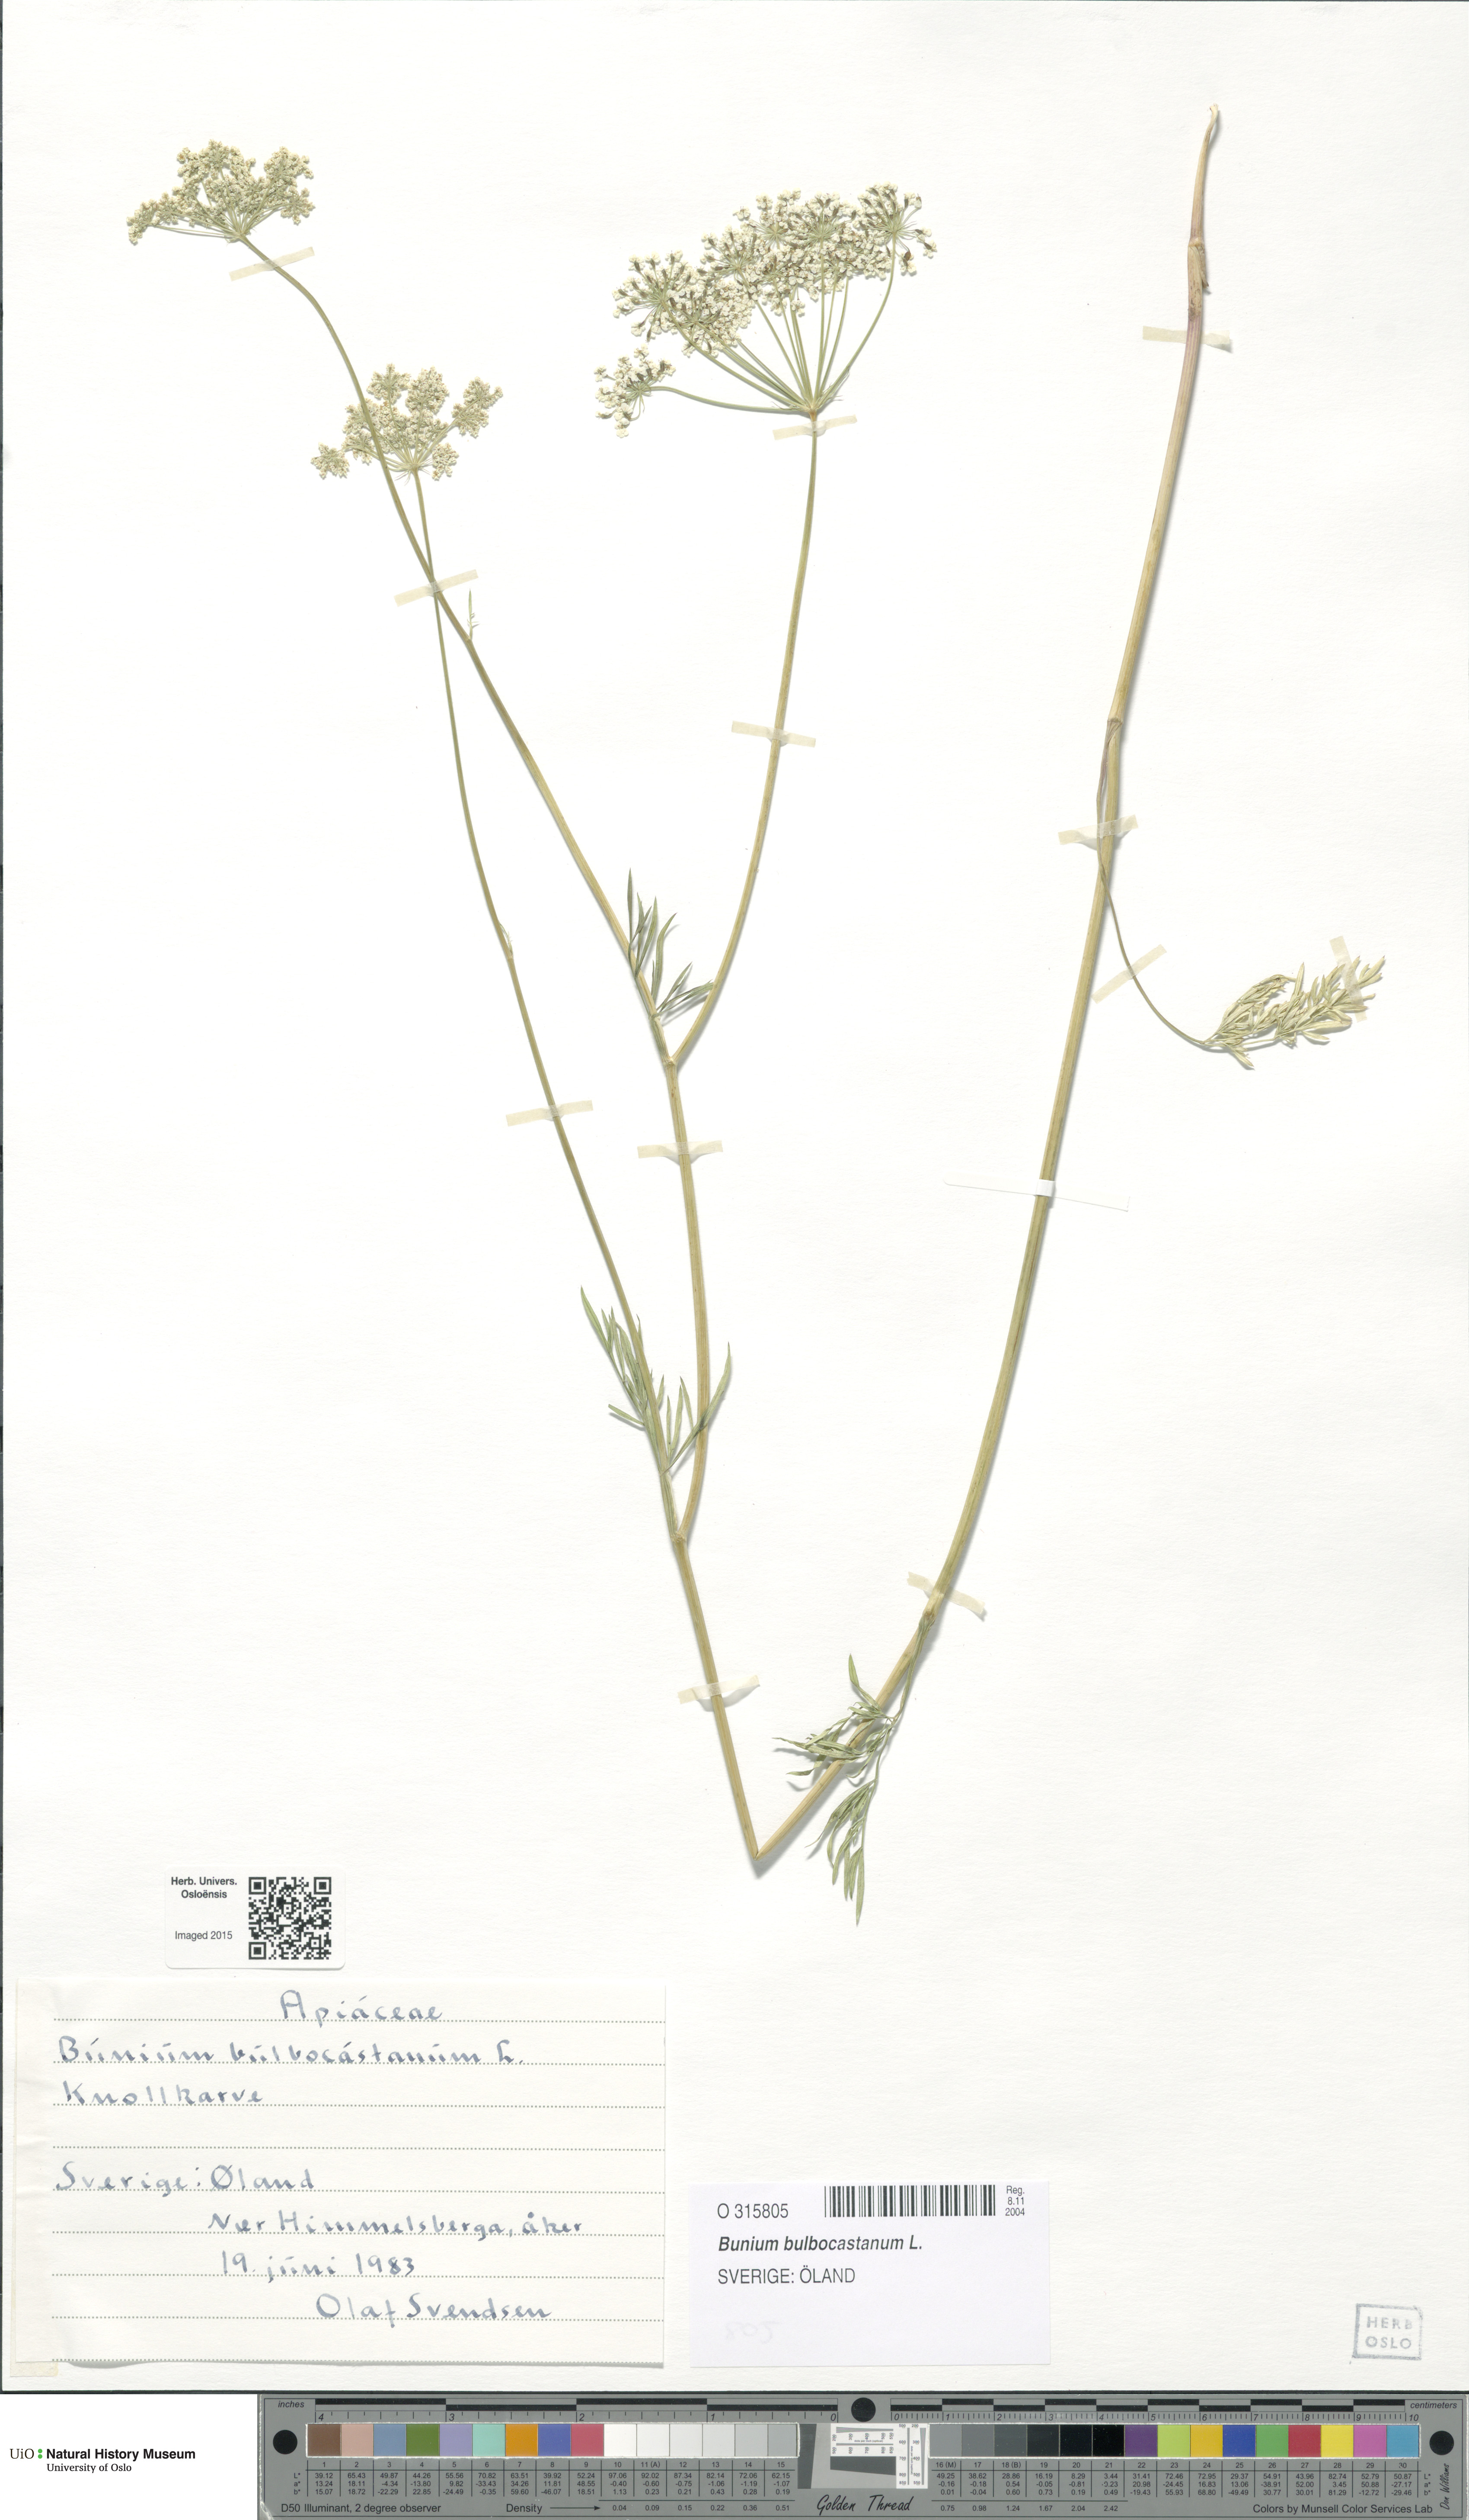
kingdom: Plantae
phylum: Tracheophyta
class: Magnoliopsida
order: Apiales
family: Apiaceae
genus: Bunium
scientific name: Bunium bulbocastanum
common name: Great pignut
